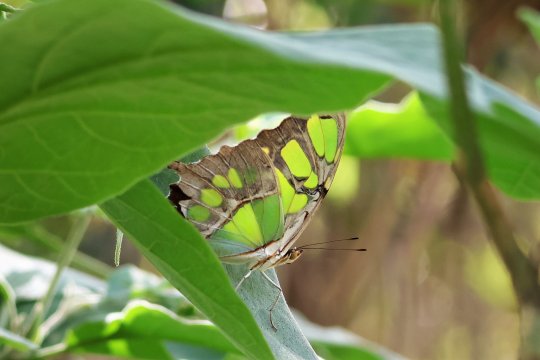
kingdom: Animalia
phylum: Arthropoda
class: Insecta
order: Lepidoptera
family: Nymphalidae
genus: Siproeta
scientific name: Siproeta stelenes
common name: Malachite
